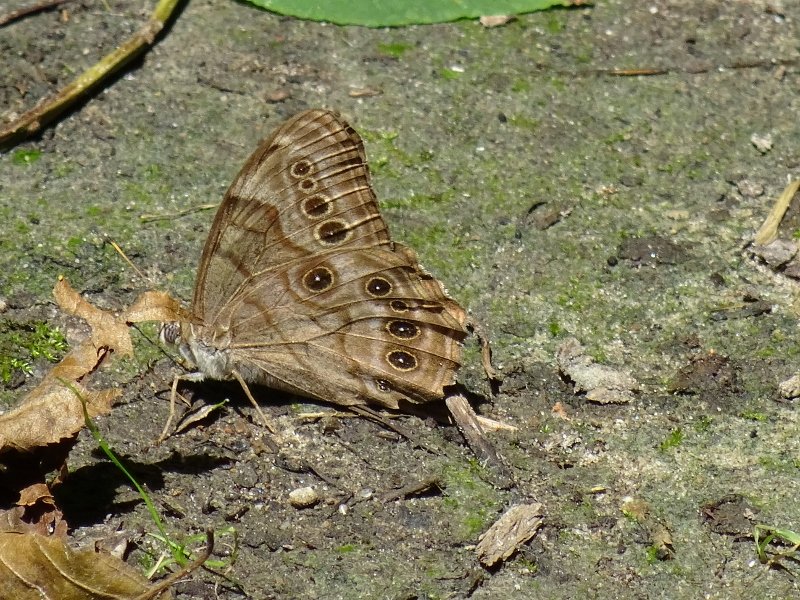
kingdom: Animalia
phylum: Arthropoda
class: Insecta
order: Lepidoptera
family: Nymphalidae
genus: Lethe
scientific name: Lethe anthedon
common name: Northern Pearly-Eye
